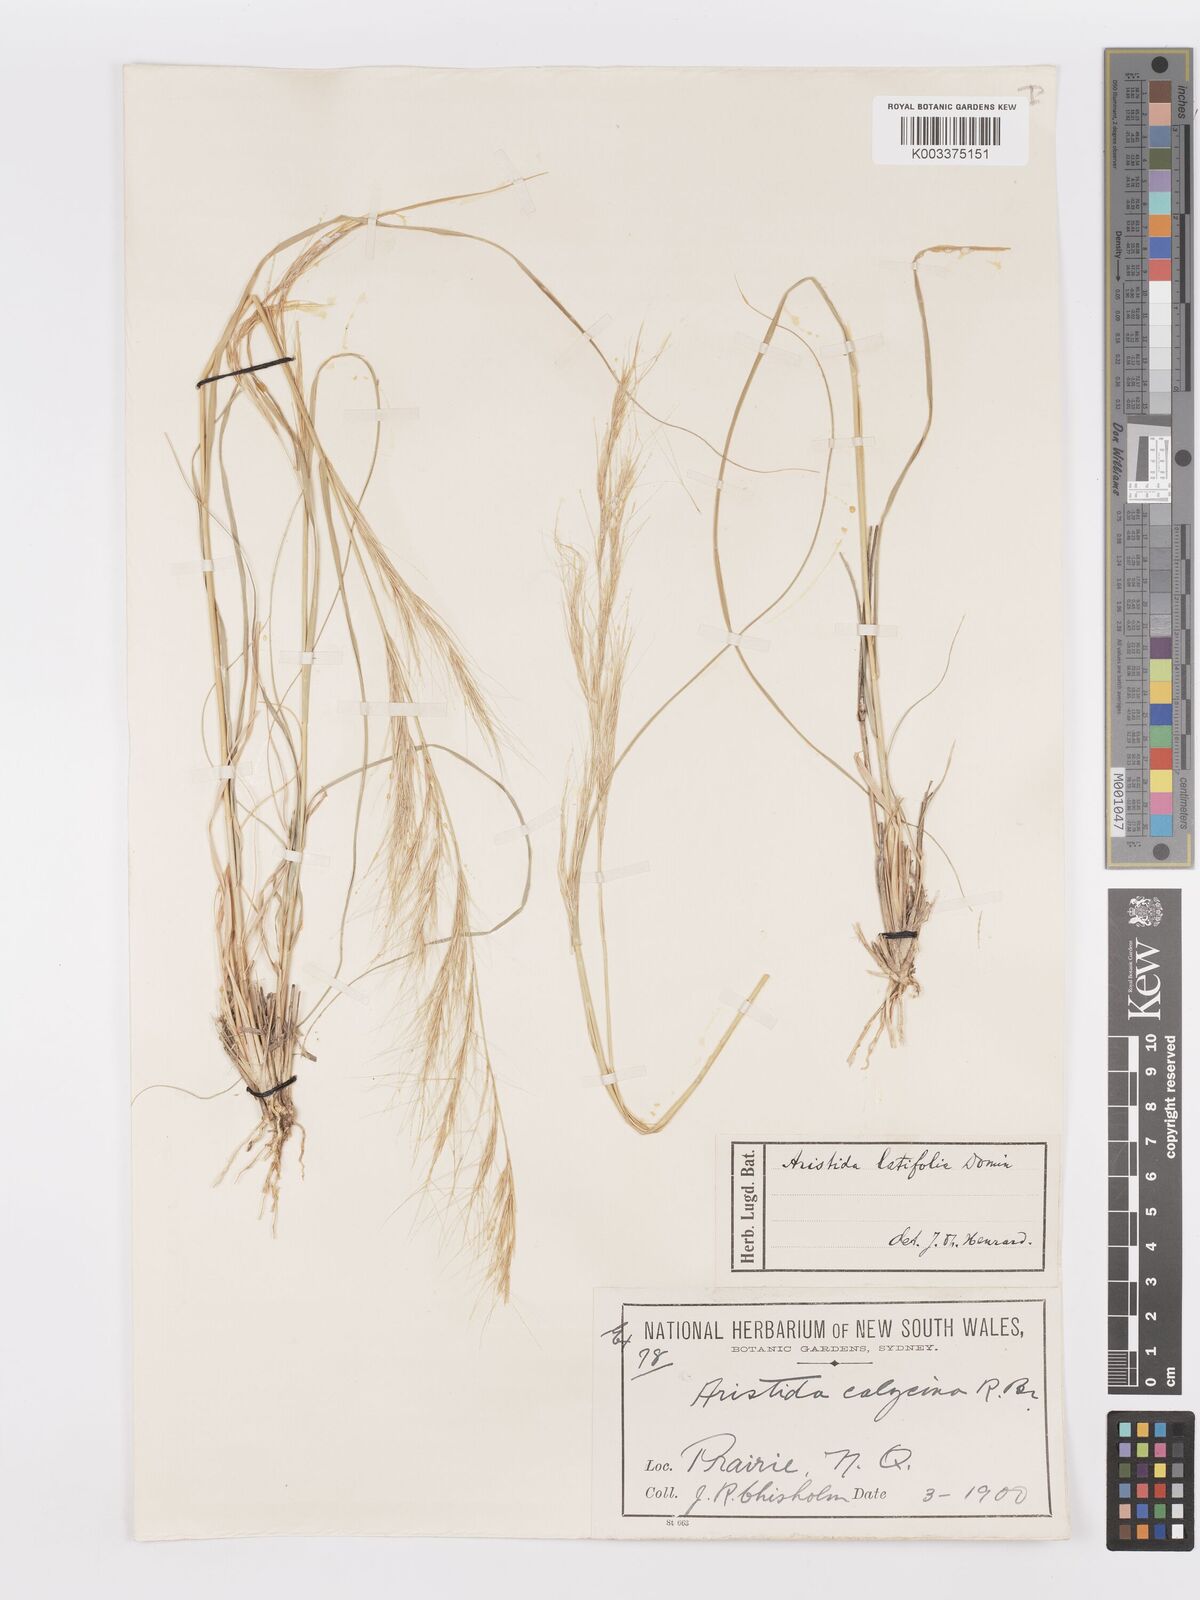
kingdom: Plantae
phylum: Tracheophyta
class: Liliopsida
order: Poales
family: Poaceae
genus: Aristida
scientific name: Aristida latifolia
